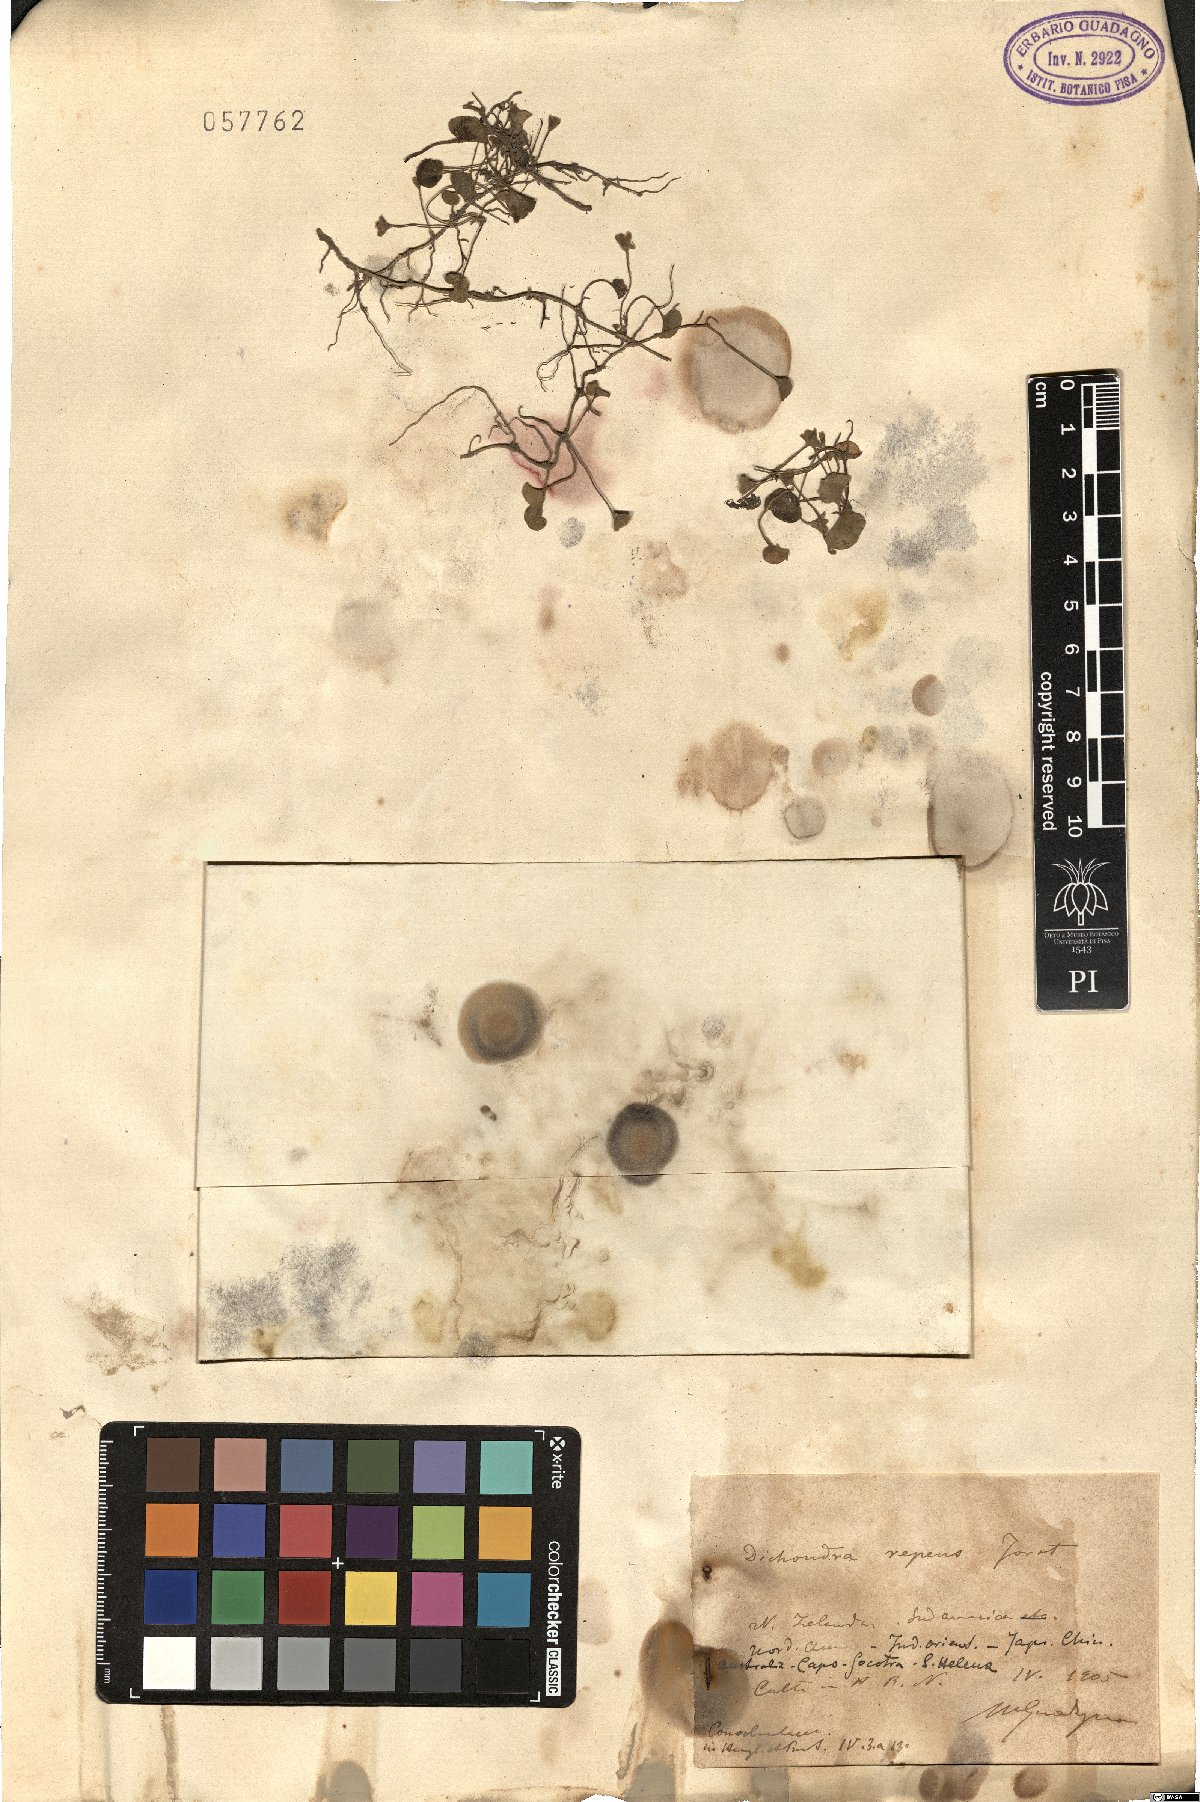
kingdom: Plantae
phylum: Tracheophyta
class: Magnoliopsida
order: Solanales
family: Convolvulaceae
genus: Dichondra
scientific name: Dichondra repens
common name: Kidneyweed
